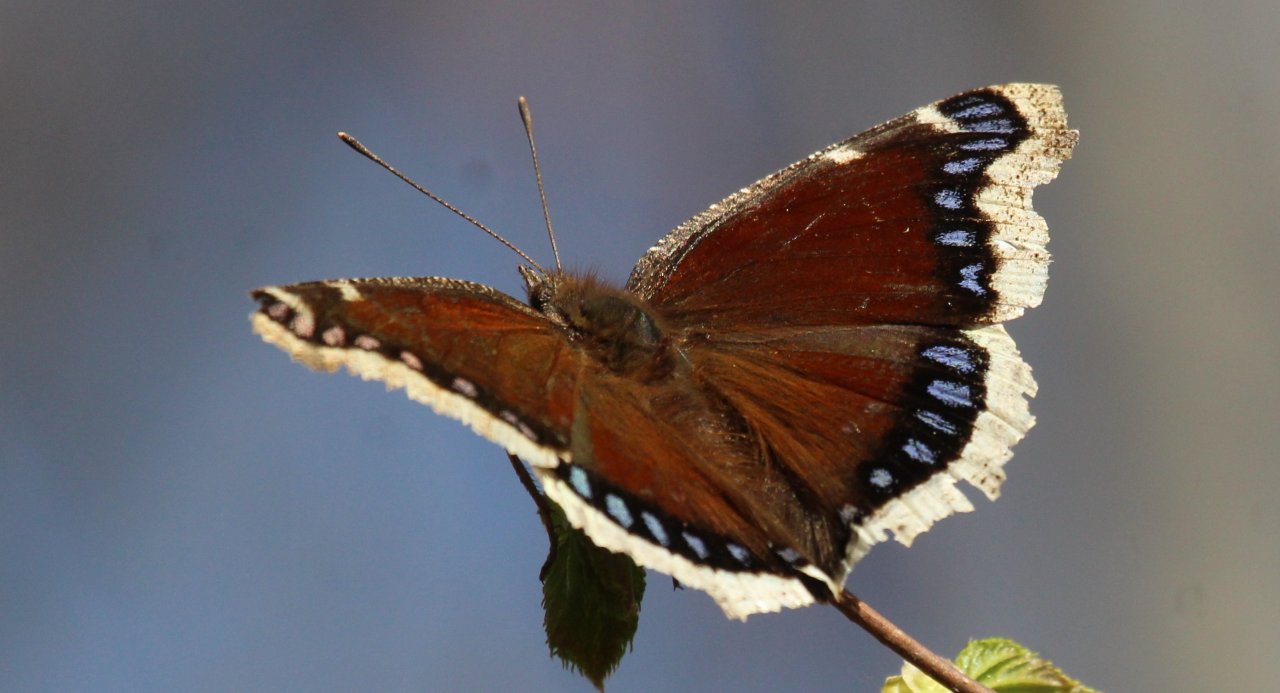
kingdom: Animalia
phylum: Arthropoda
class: Insecta
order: Lepidoptera
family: Nymphalidae
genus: Nymphalis
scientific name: Nymphalis antiopa
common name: Mourning Cloak
